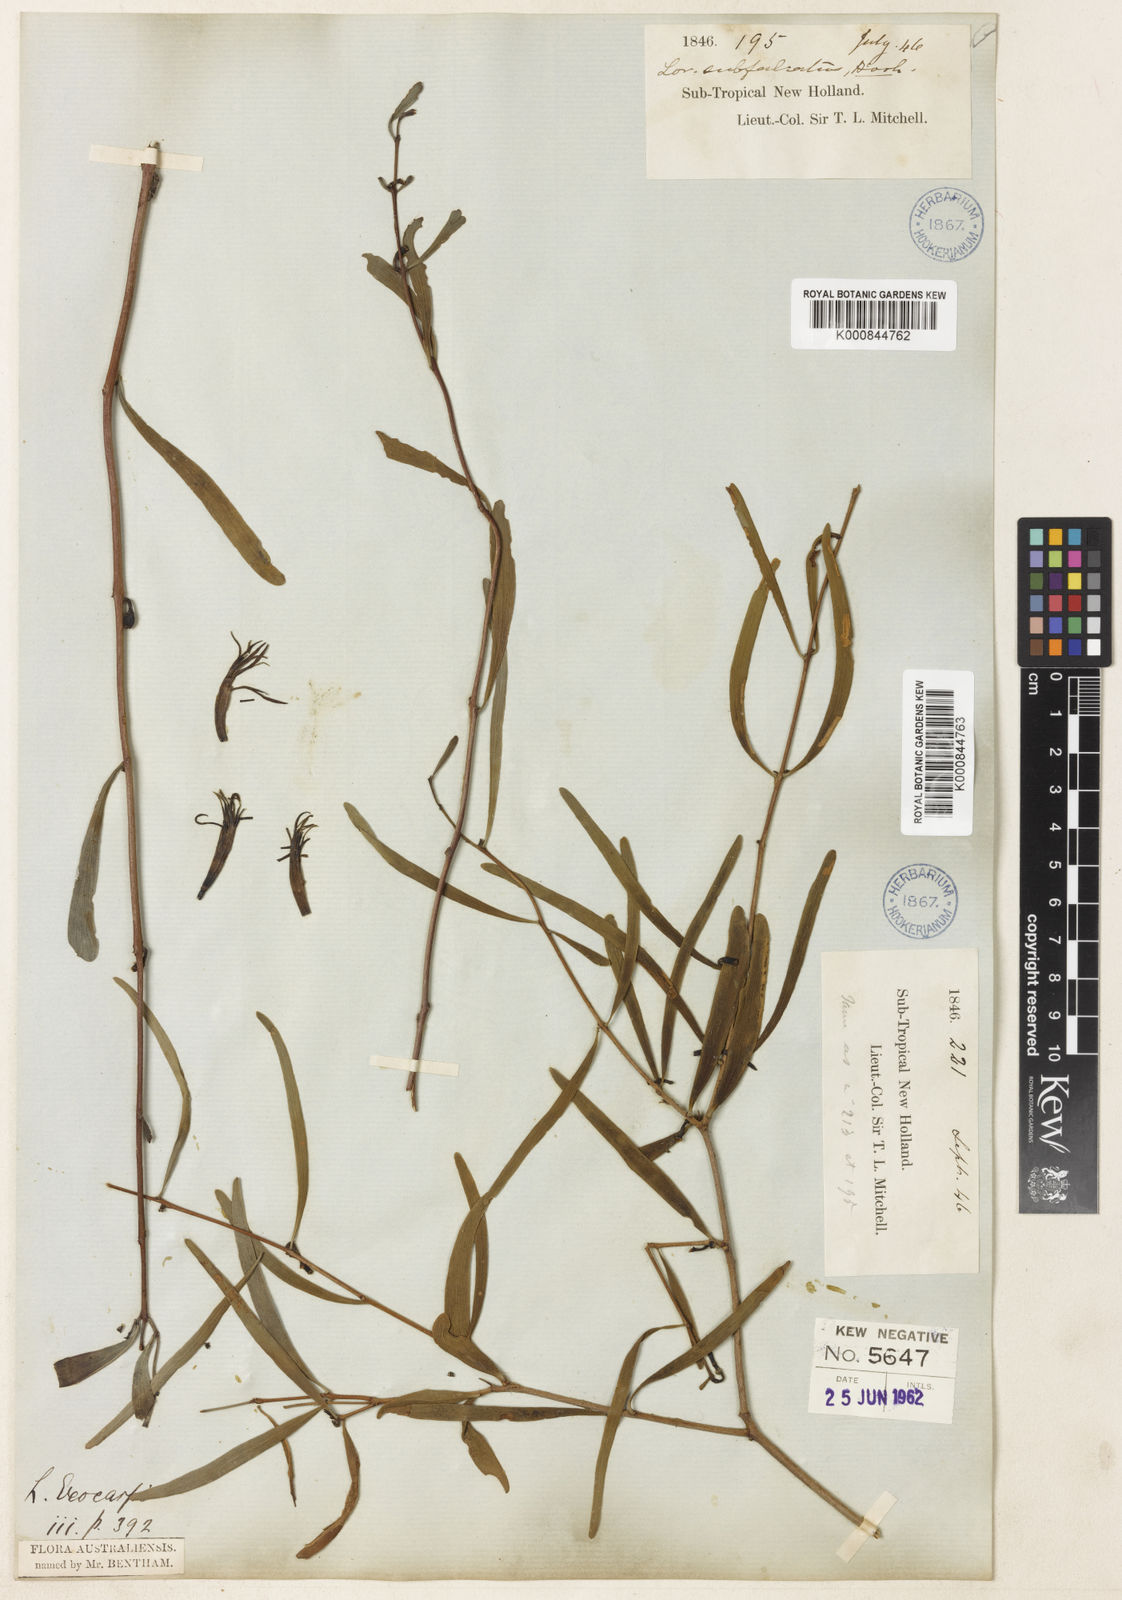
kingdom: Plantae
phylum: Tracheophyta
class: Magnoliopsida
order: Santalales
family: Loranthaceae
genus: Lysiana
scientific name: Lysiana exocarpi
